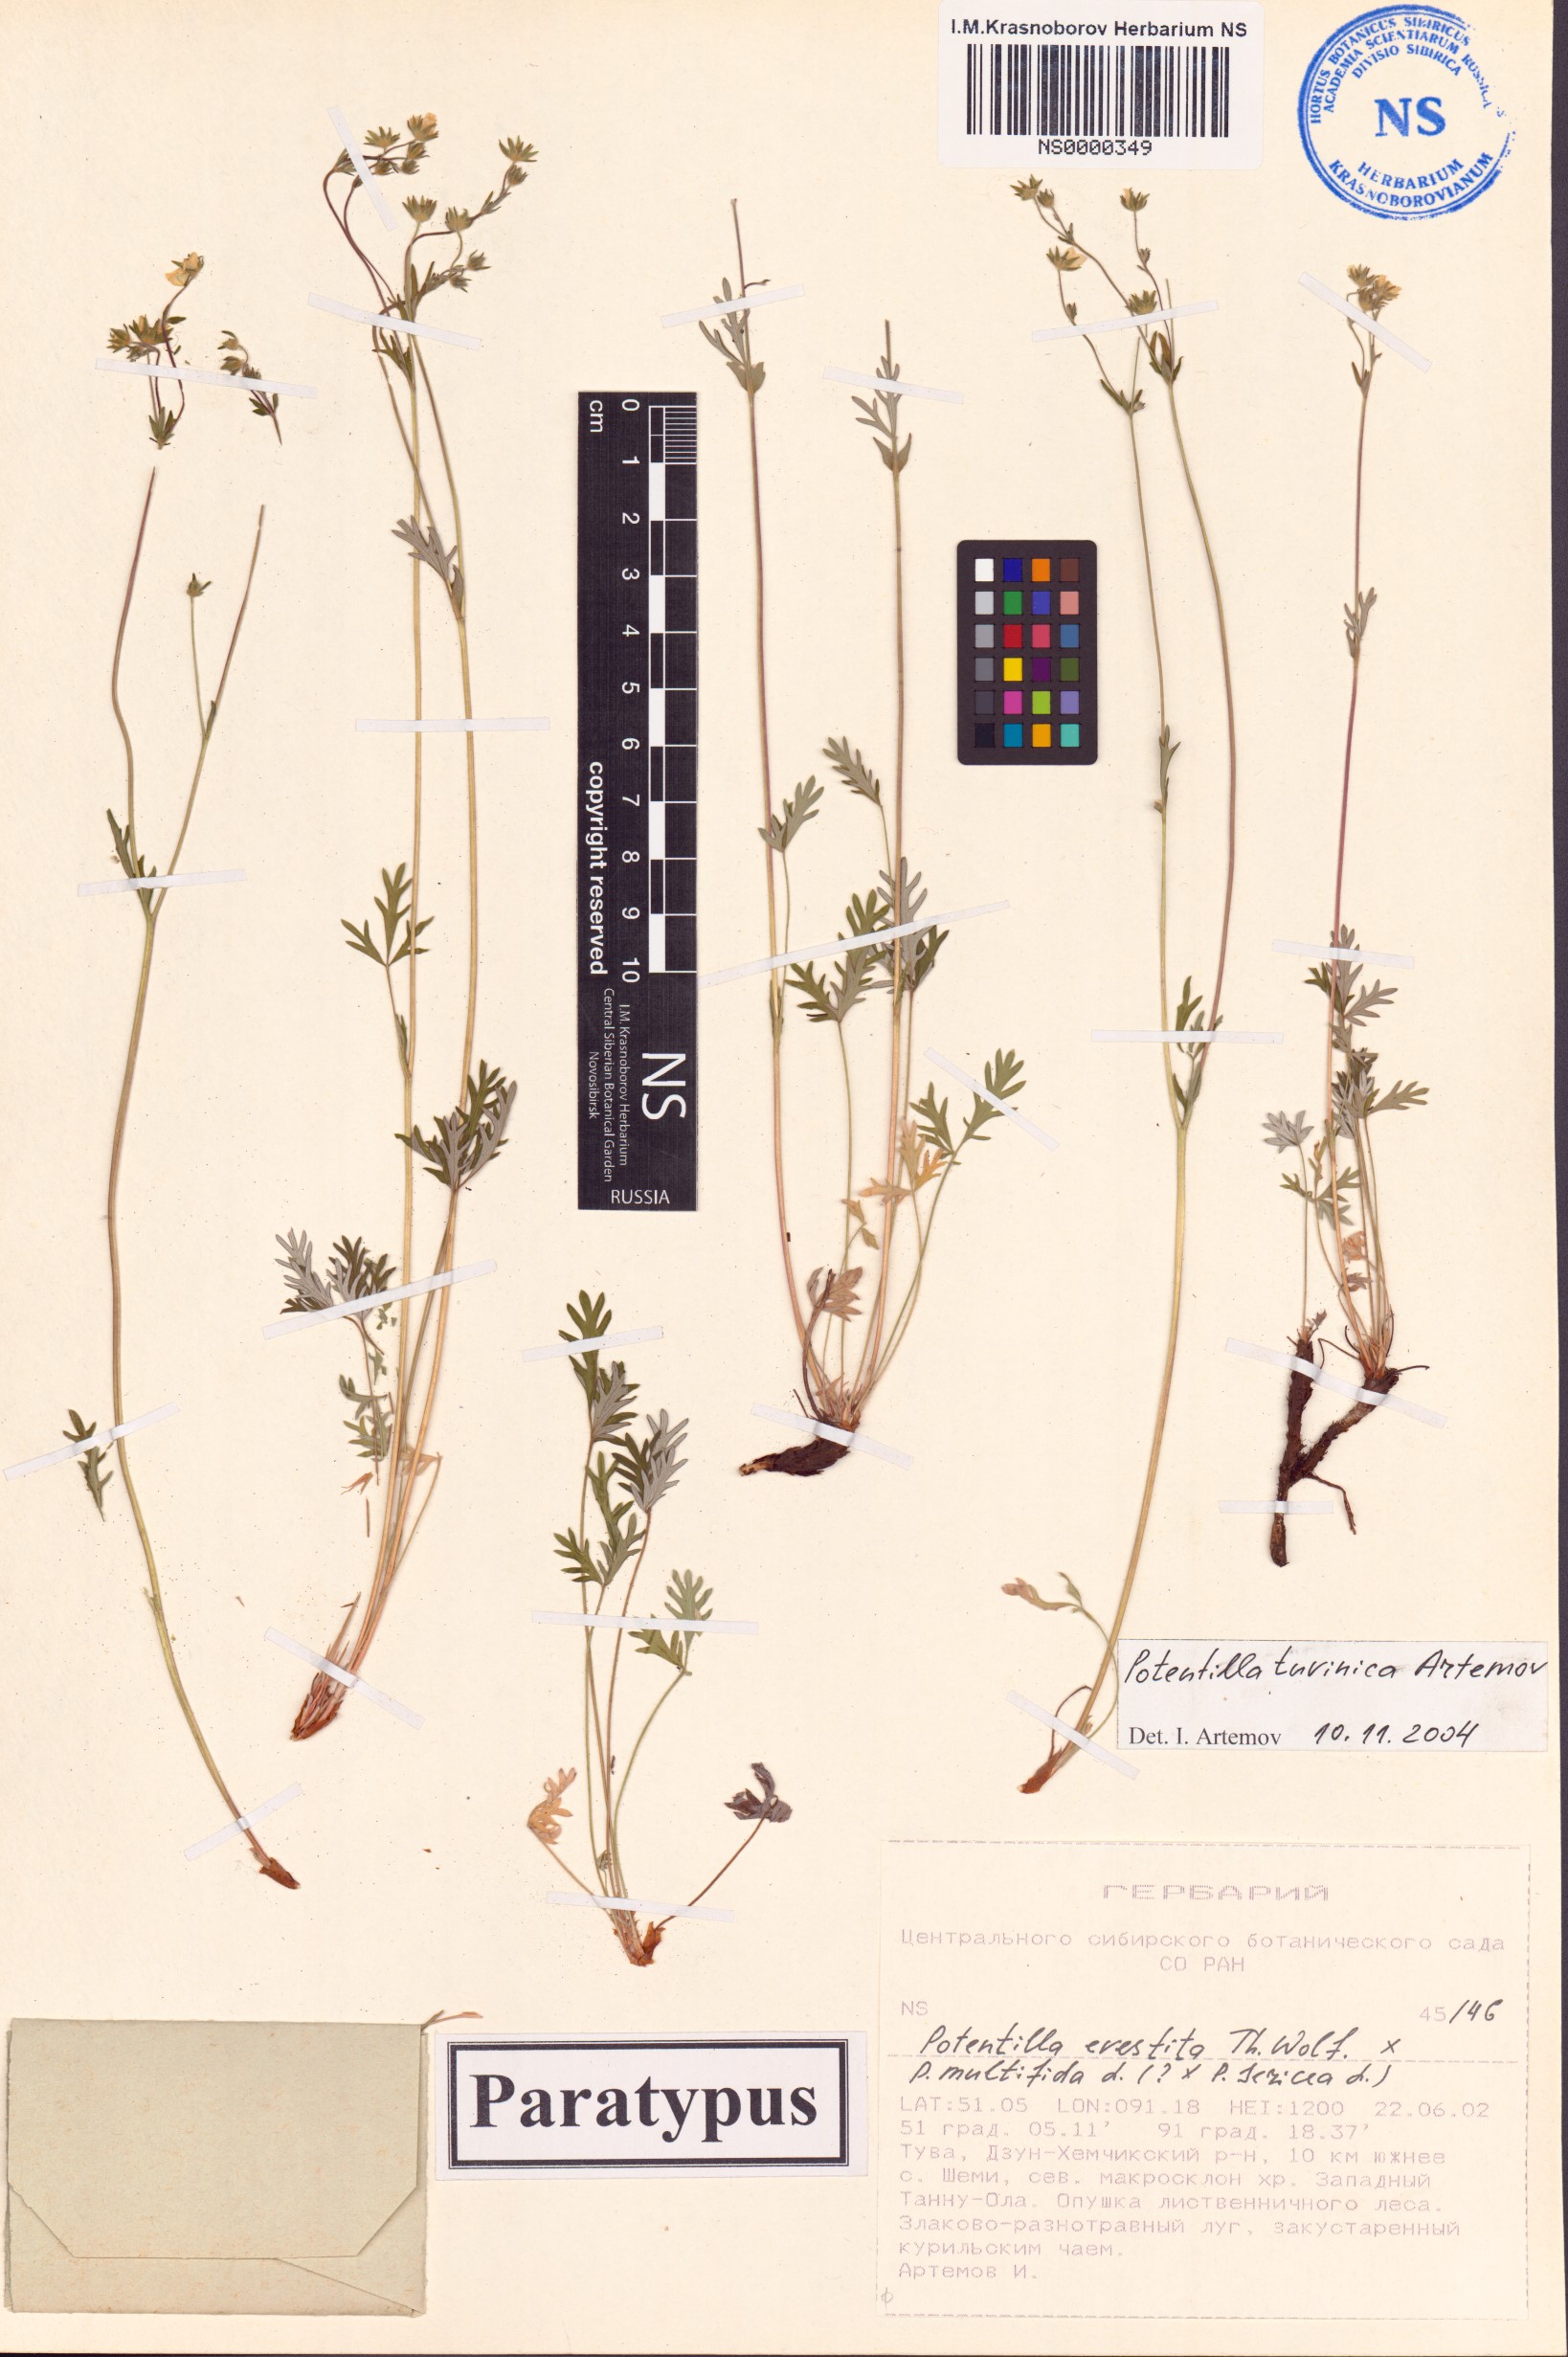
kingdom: Plantae
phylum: Tracheophyta
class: Magnoliopsida
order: Rosales
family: Rosaceae
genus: Potentilla
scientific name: Potentilla tuvinica
